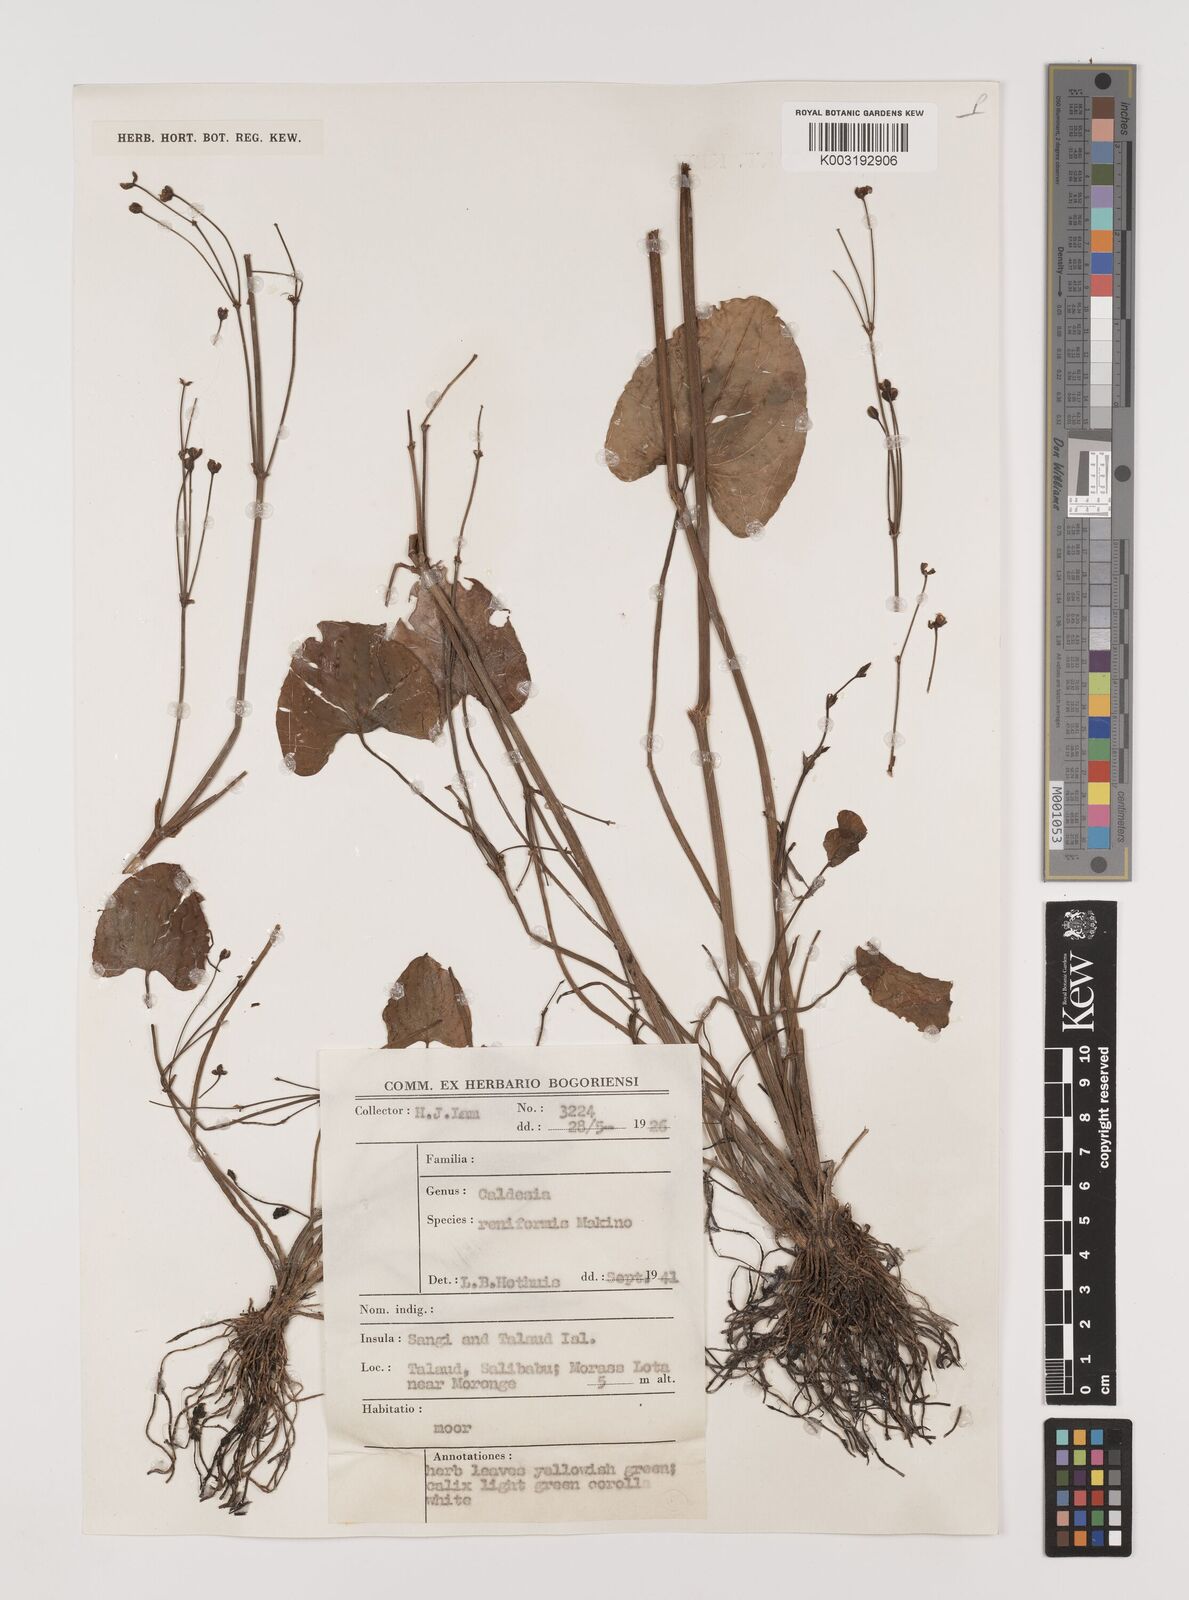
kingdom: Plantae
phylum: Tracheophyta
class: Liliopsida
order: Alismatales
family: Alismataceae
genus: Caldesia
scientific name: Caldesia parnassifolia
